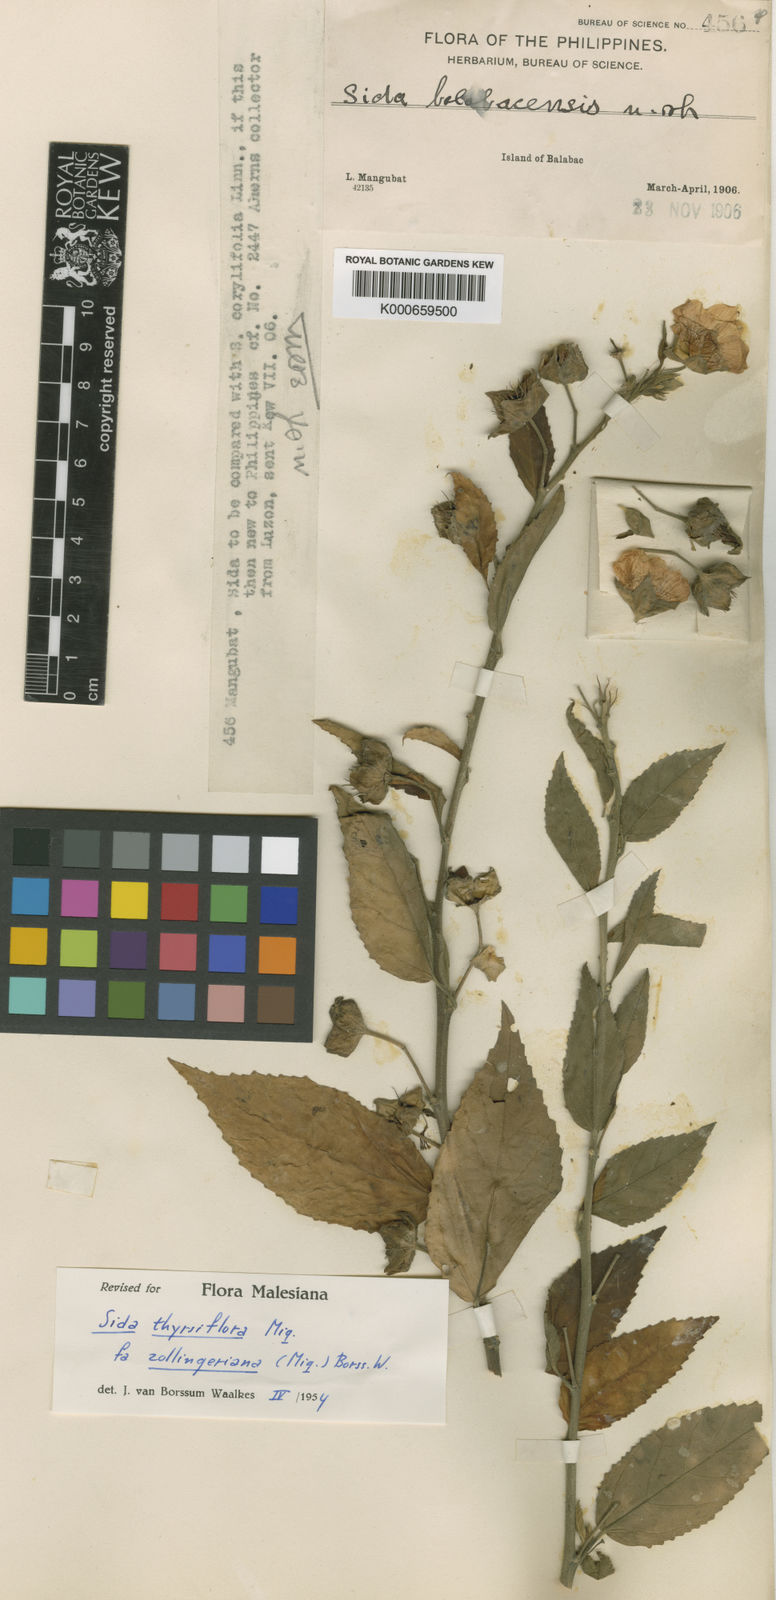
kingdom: Plantae
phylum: Tracheophyta
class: Magnoliopsida
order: Malvales
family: Malvaceae
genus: Sida
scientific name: Sida subcordata
